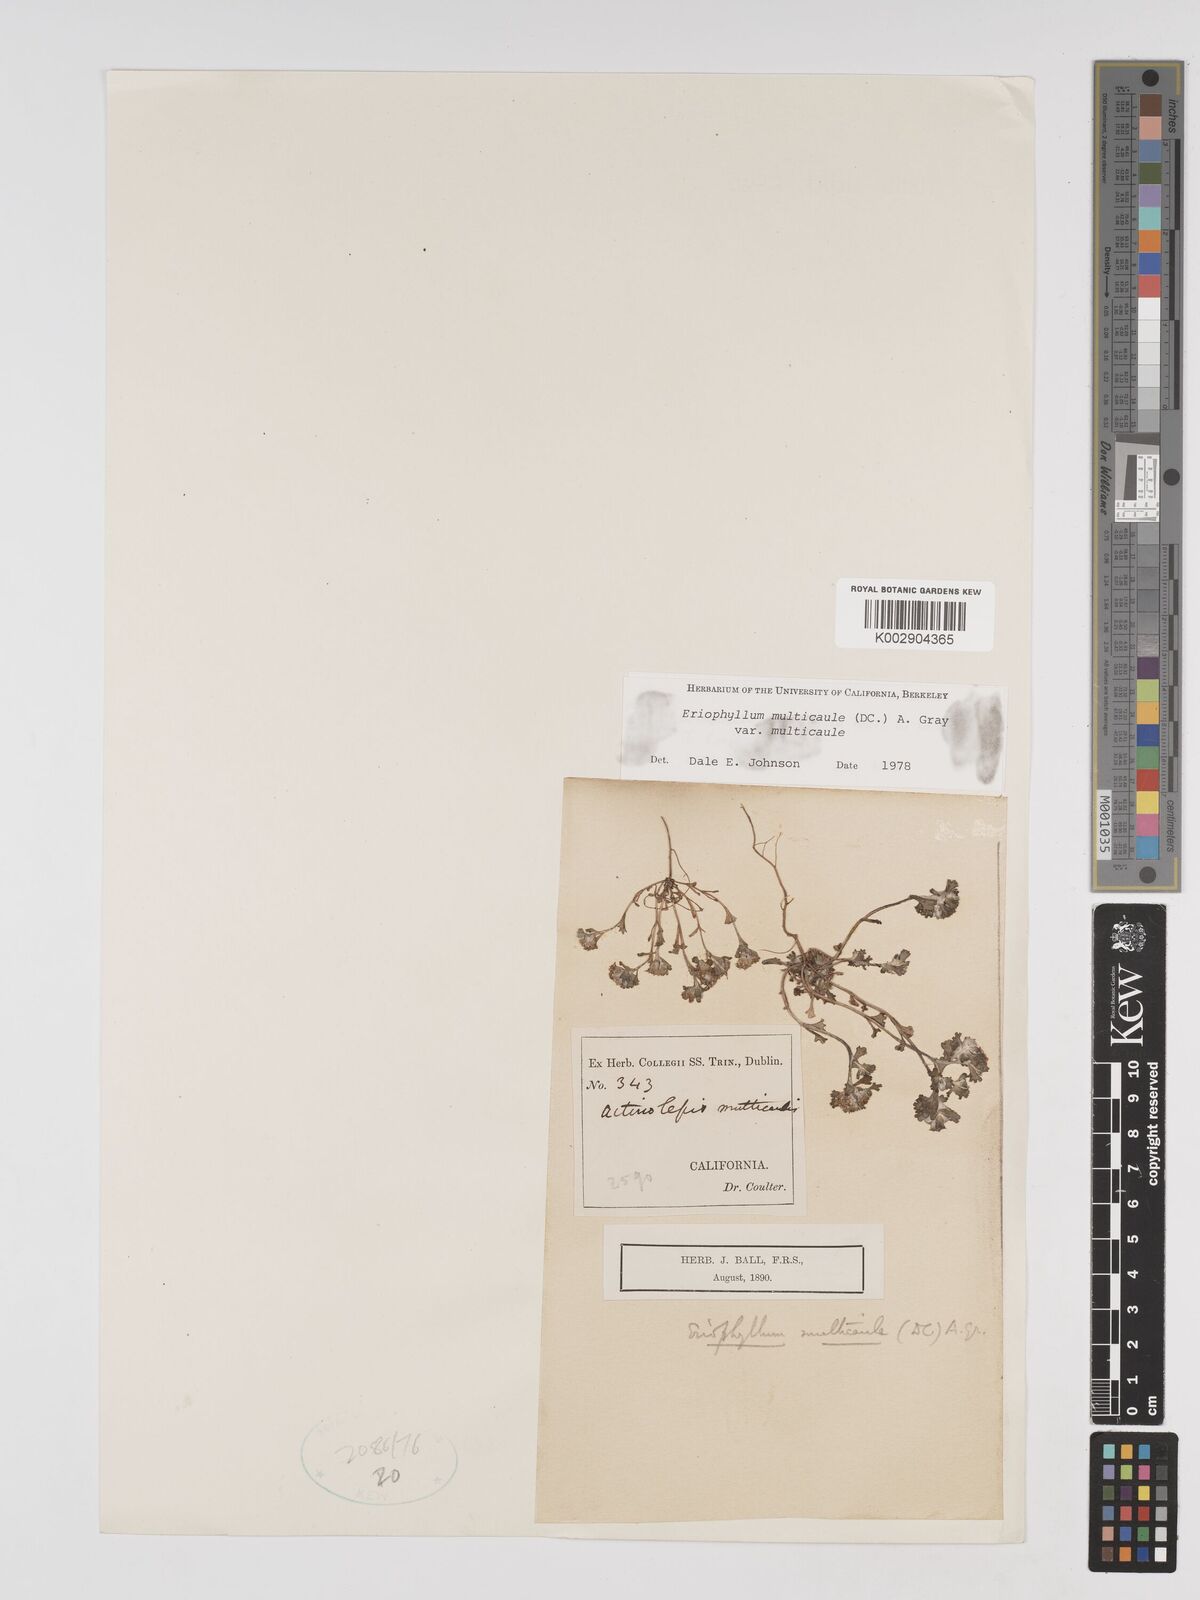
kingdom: Plantae
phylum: Tracheophyta
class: Magnoliopsida
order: Asterales
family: Asteraceae
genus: Eriophyllum
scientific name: Eriophyllum multicaule
